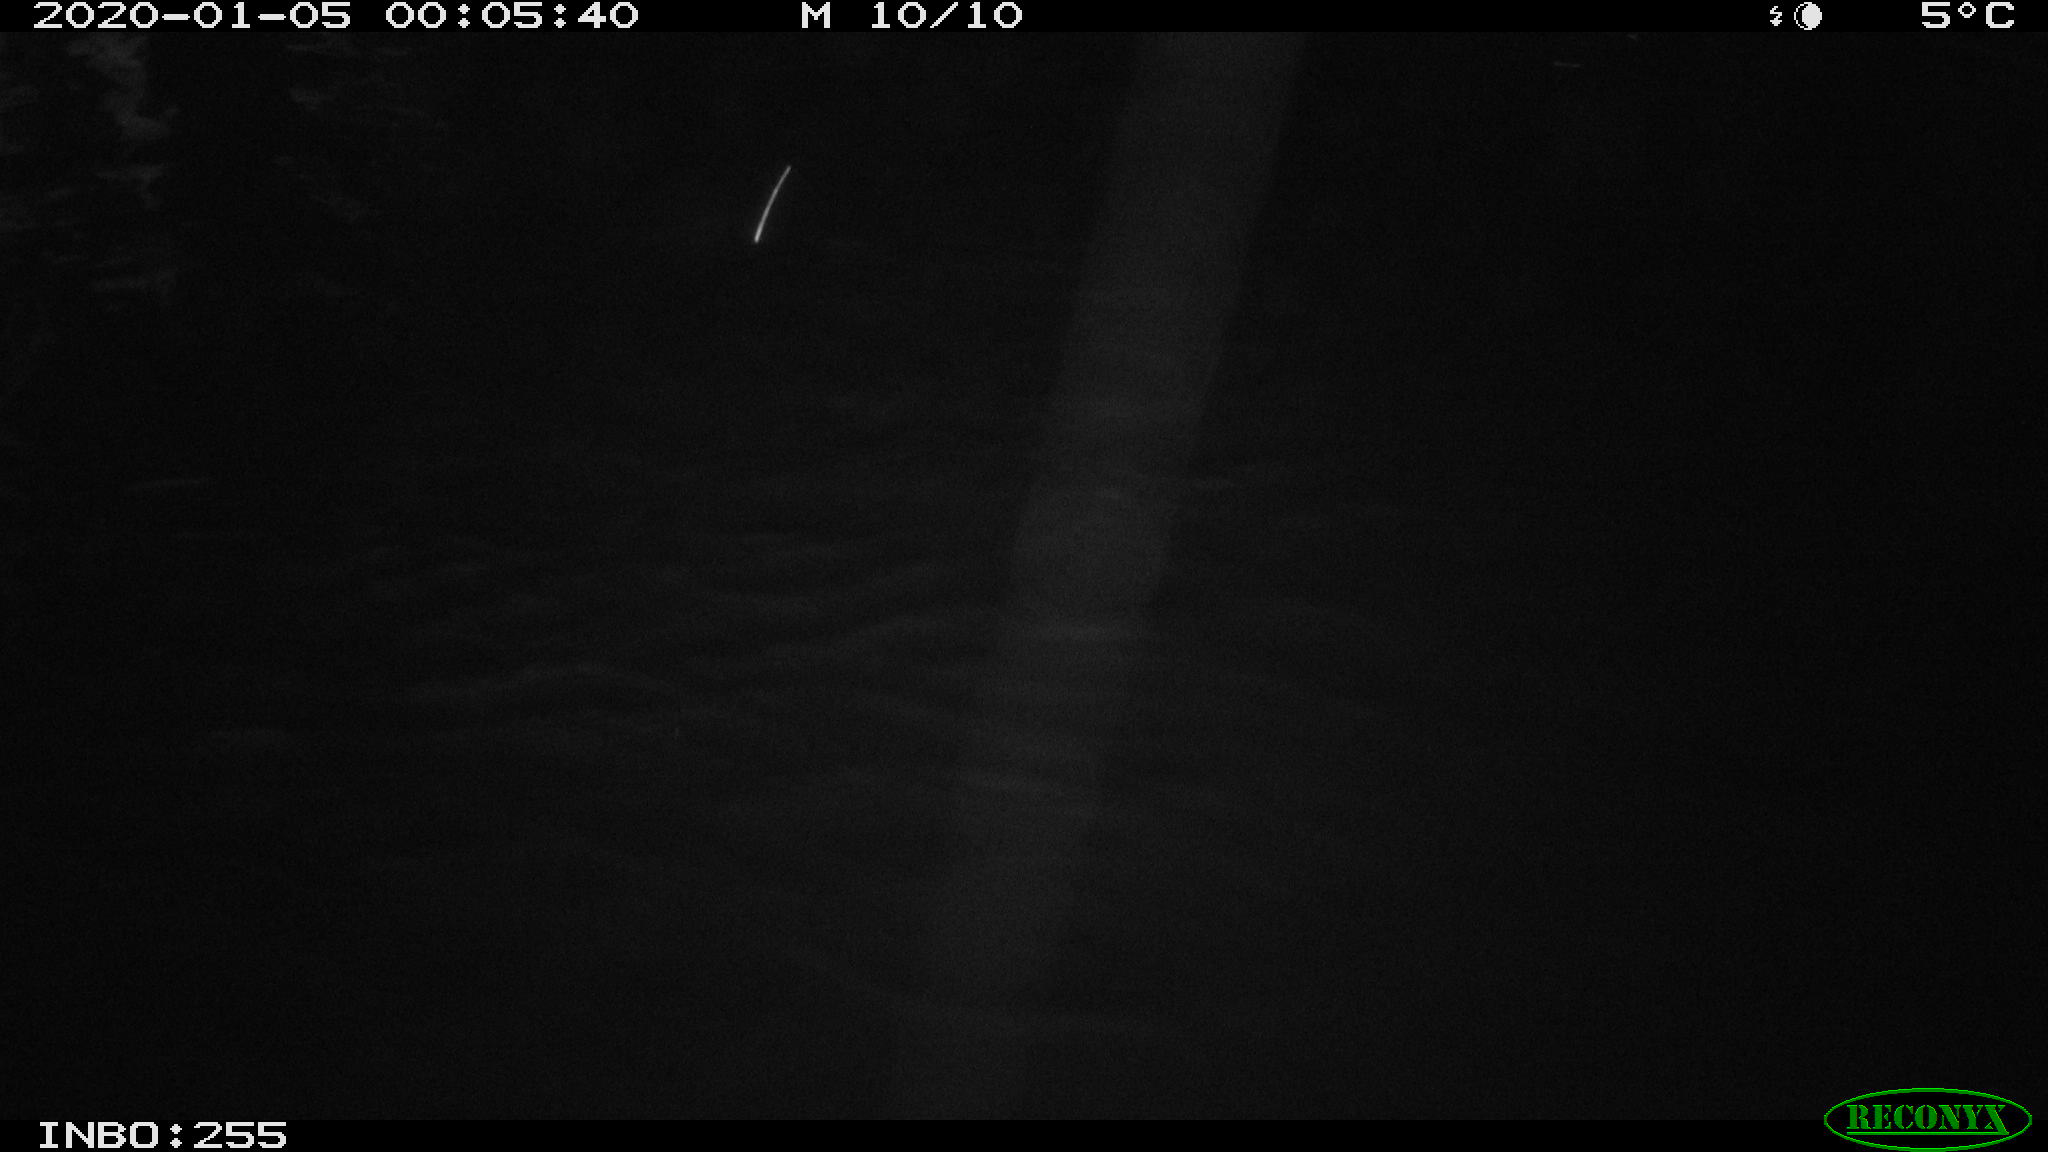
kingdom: Animalia
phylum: Chordata
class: Aves
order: Anseriformes
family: Anatidae
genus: Anas
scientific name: Anas platyrhynchos
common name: Mallard
